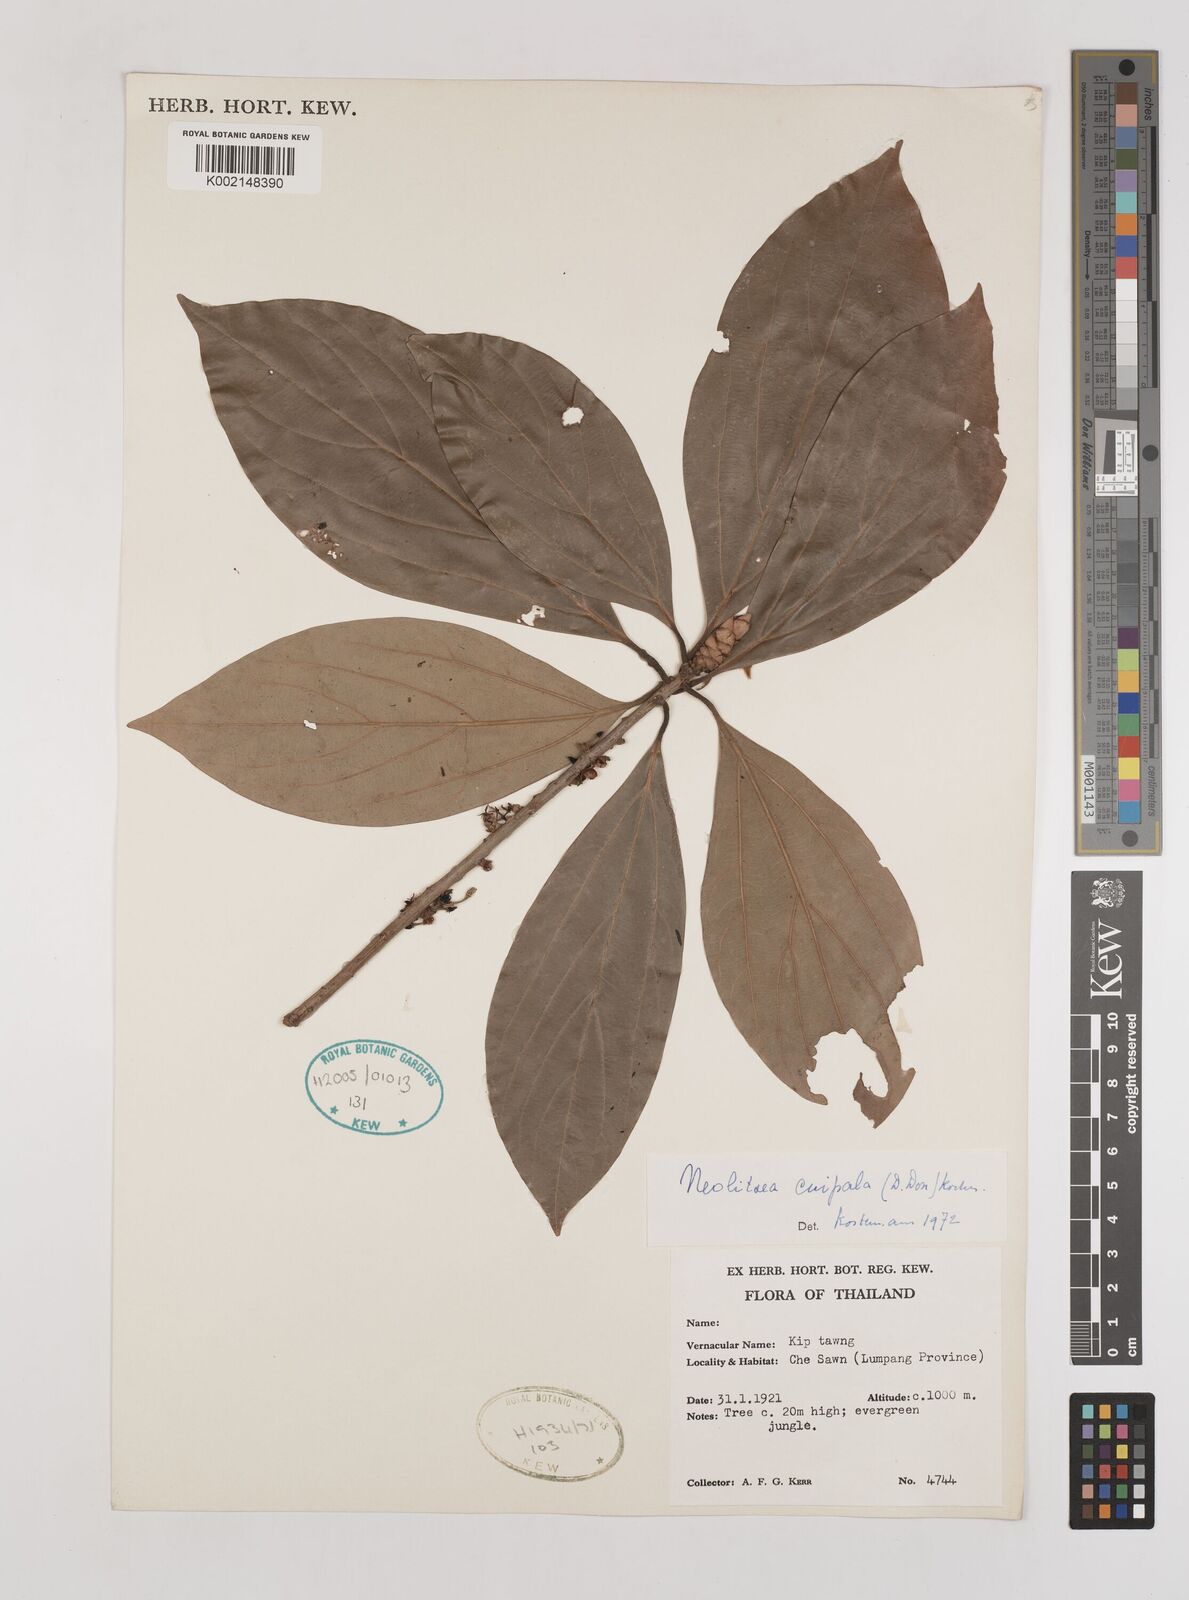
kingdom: Plantae
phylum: Tracheophyta
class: Magnoliopsida
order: Laurales
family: Lauraceae
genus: Neolitsea
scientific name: Neolitsea cuipala
